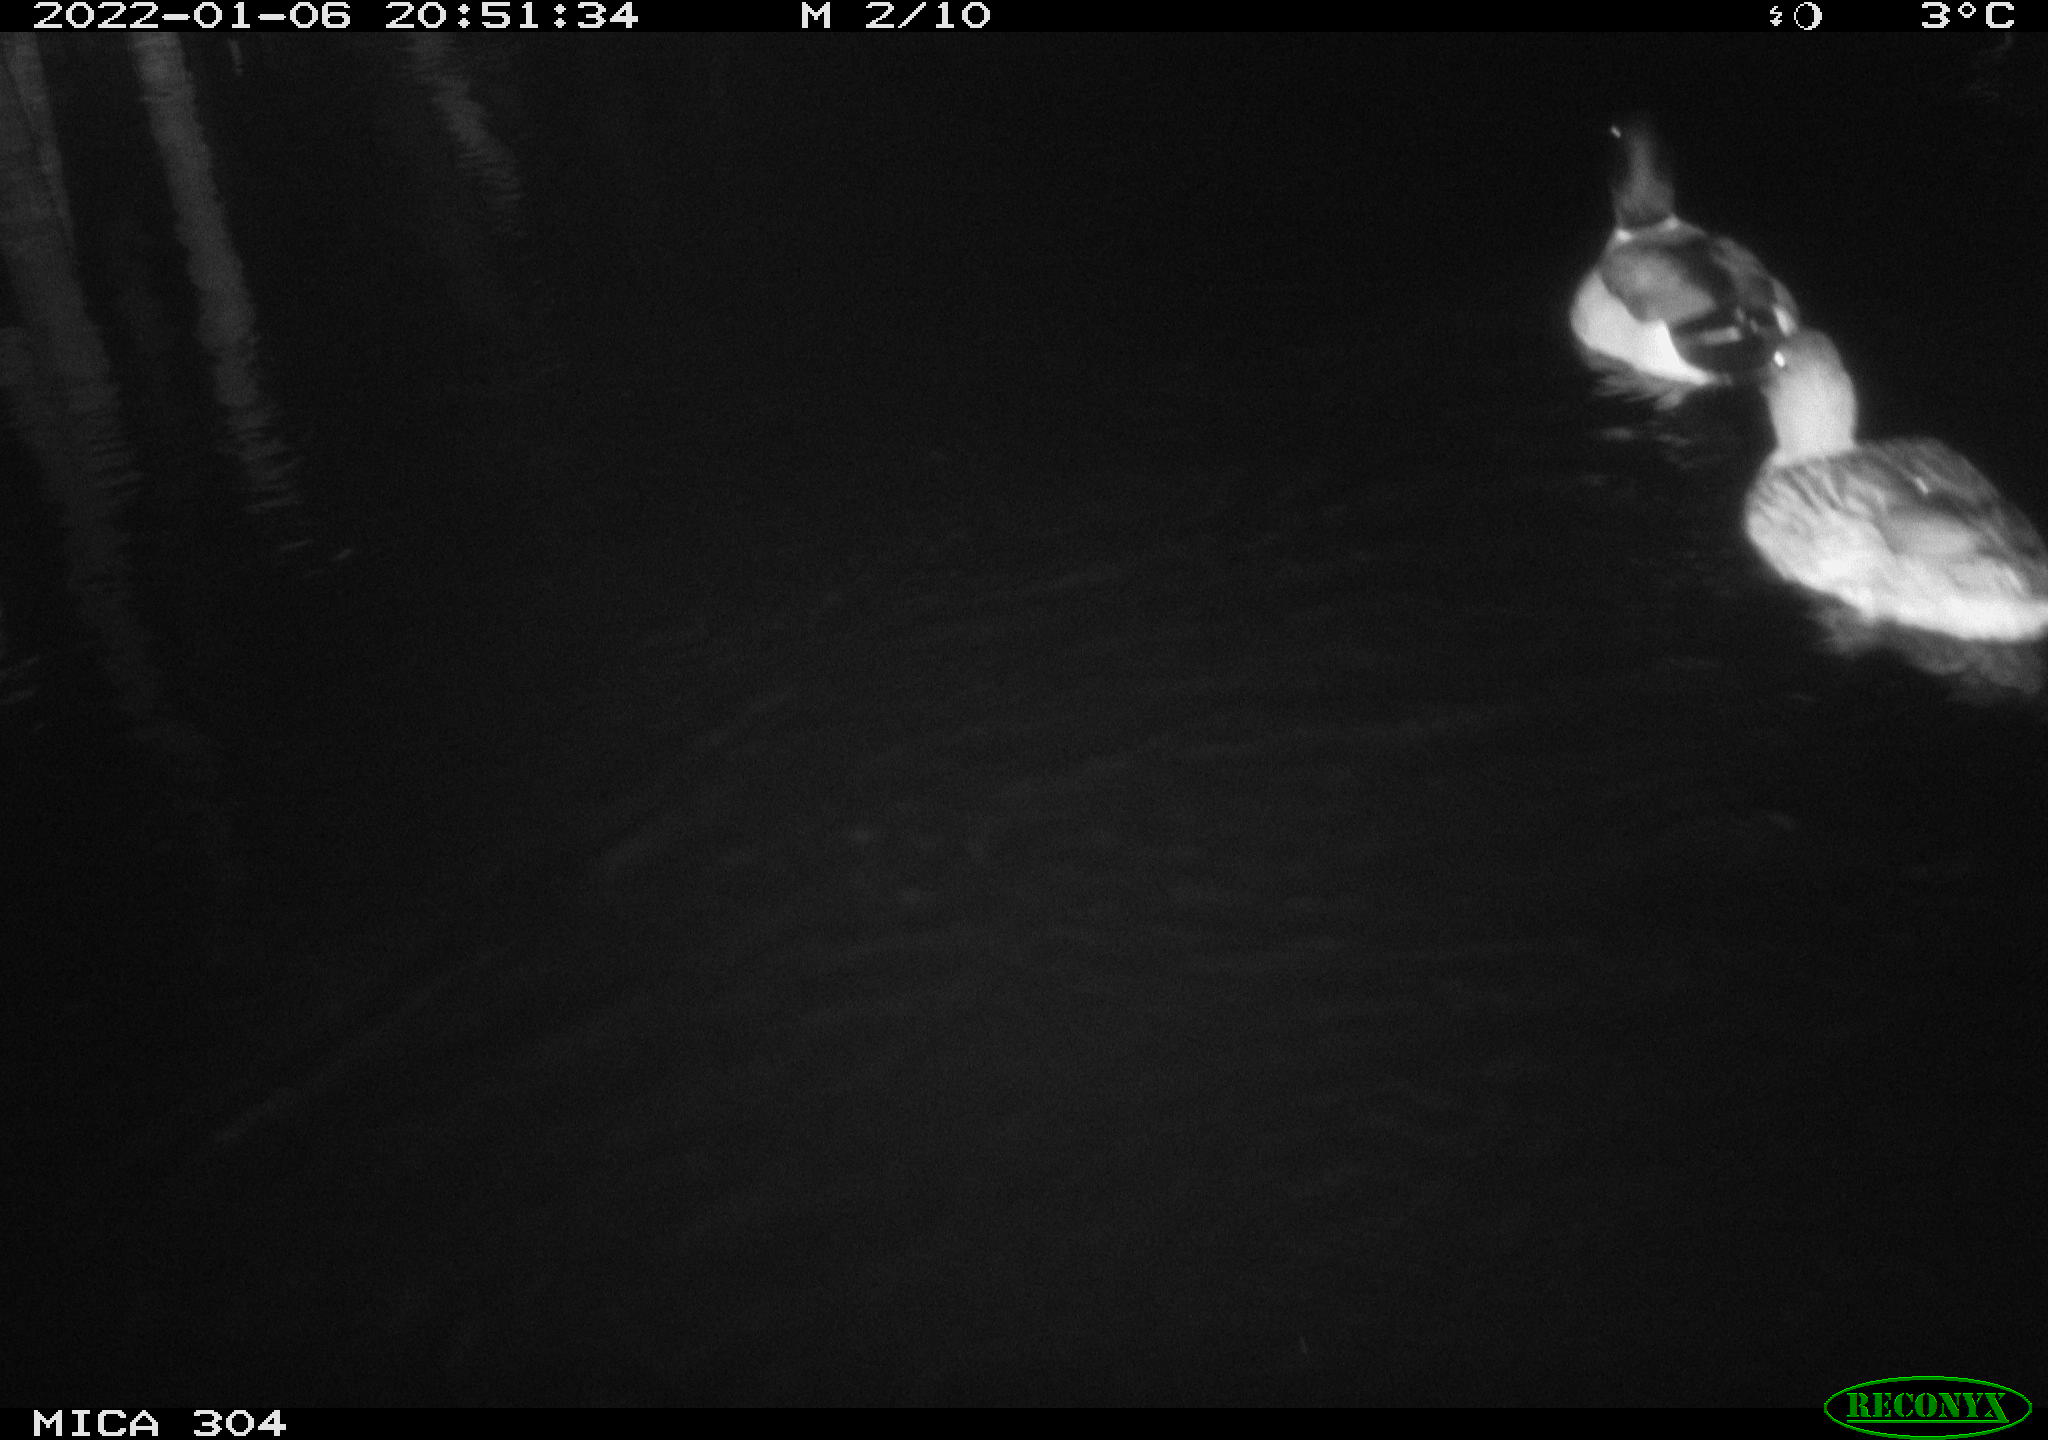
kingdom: Animalia
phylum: Chordata
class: Aves
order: Anseriformes
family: Anatidae
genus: Anas
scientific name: Anas
